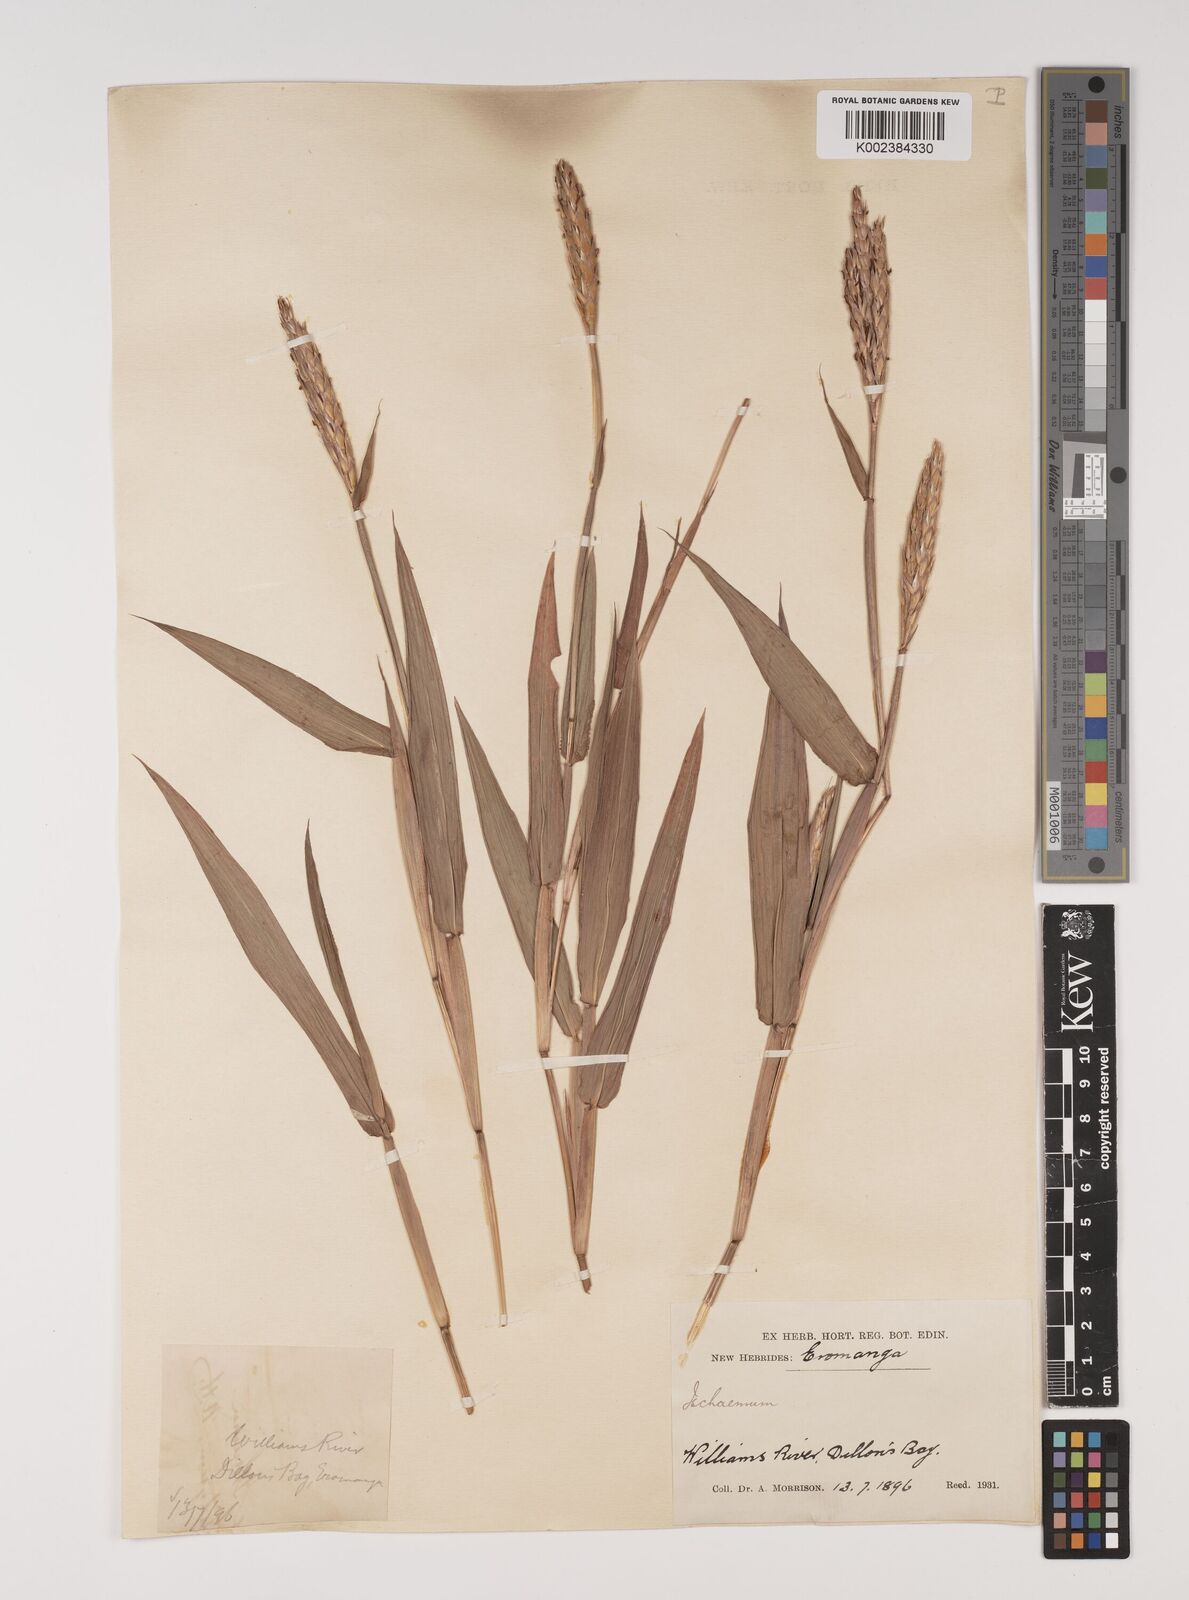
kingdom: Plantae
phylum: Tracheophyta
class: Liliopsida
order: Poales
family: Poaceae
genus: Ischaemum
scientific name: Ischaemum muticum
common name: Drought grass
